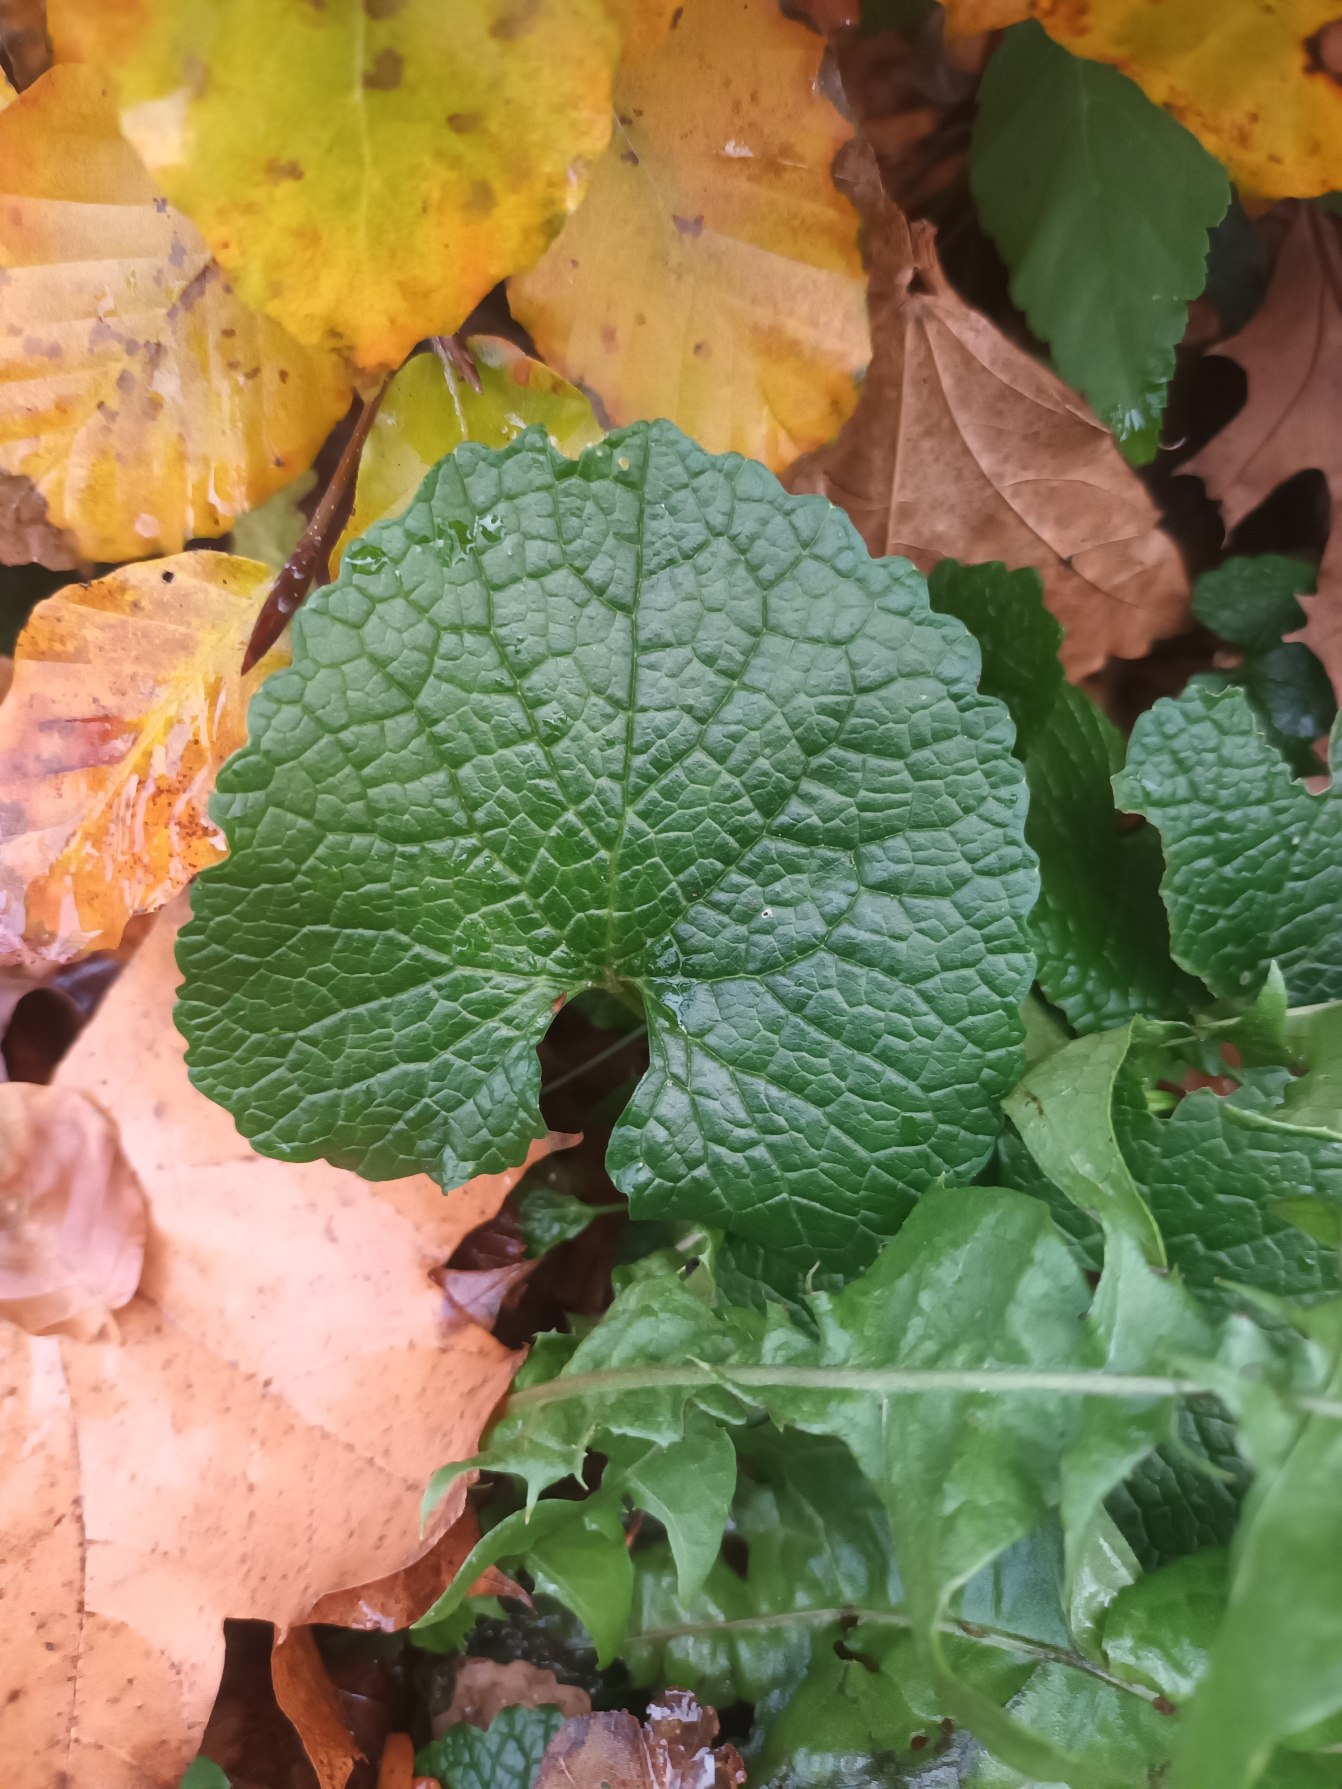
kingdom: Plantae
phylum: Tracheophyta
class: Magnoliopsida
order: Brassicales
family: Brassicaceae
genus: Alliaria
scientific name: Alliaria petiolata
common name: Løgkarse
